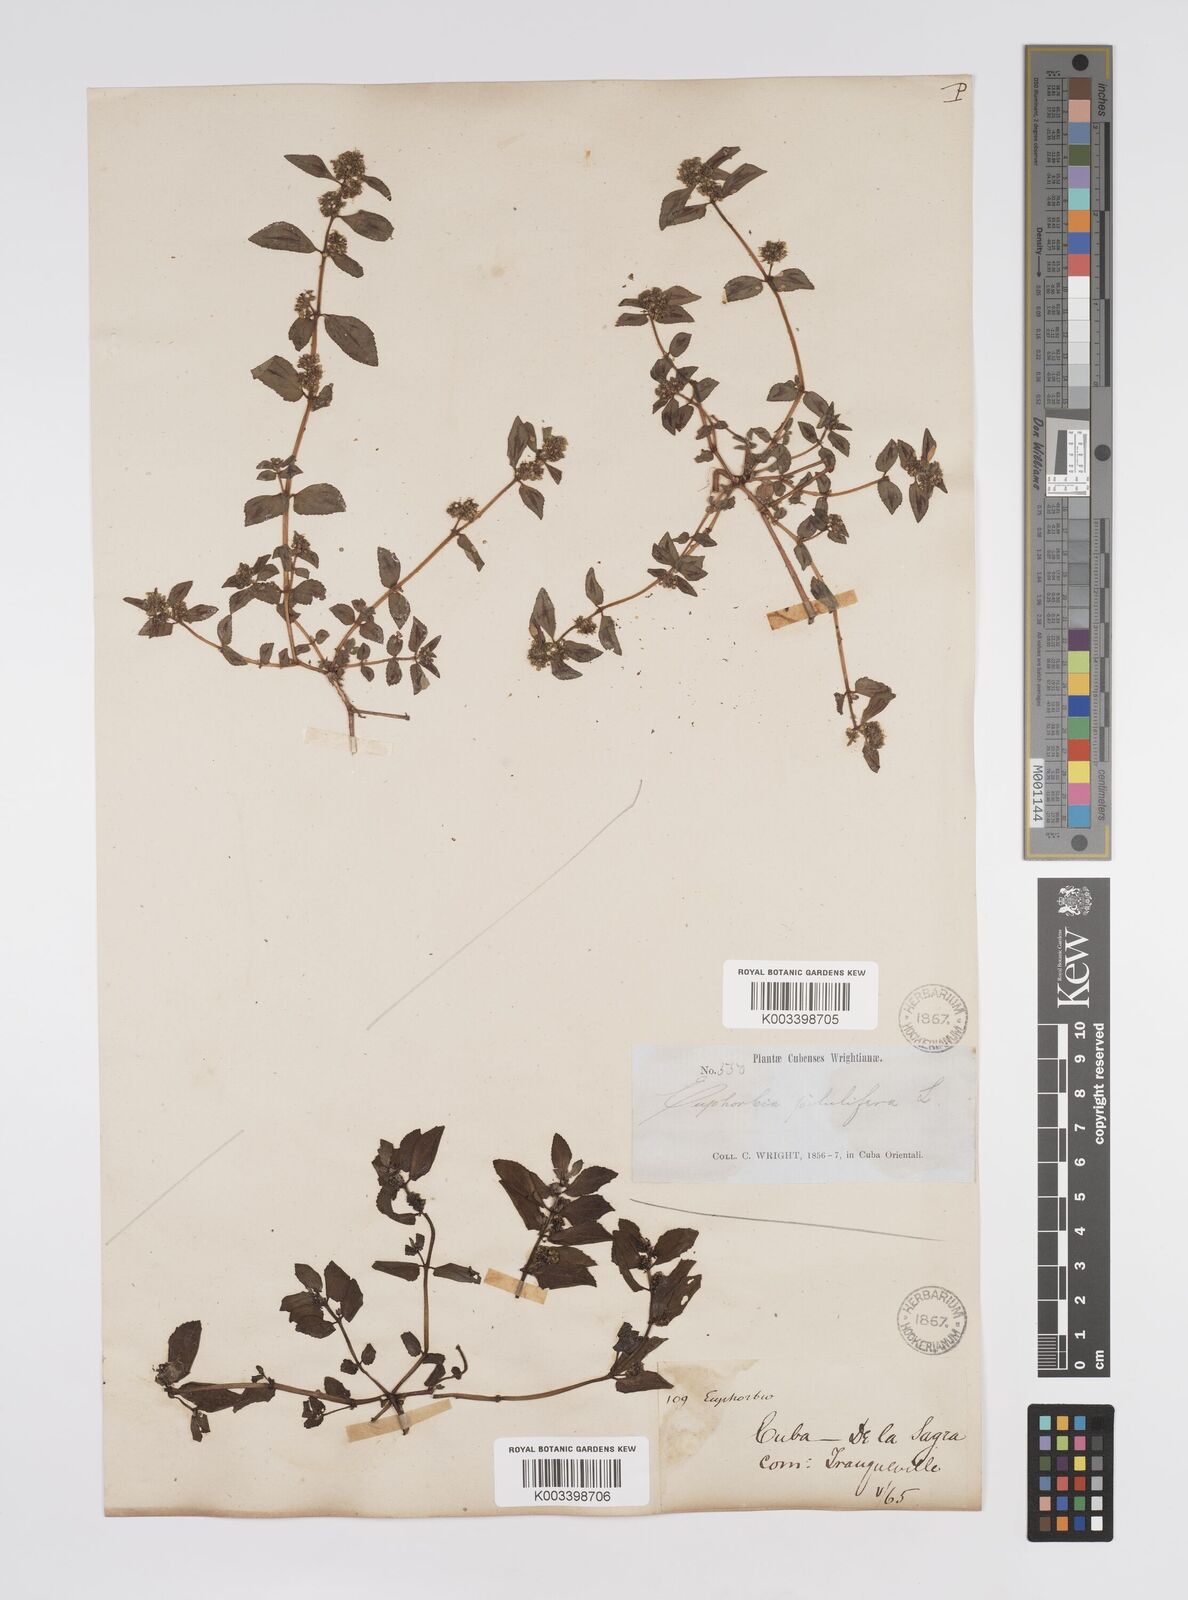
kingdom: Plantae
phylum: Tracheophyta
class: Magnoliopsida
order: Malpighiales
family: Euphorbiaceae
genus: Euphorbia
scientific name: Euphorbia hirta
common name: Pillpod sandmat
